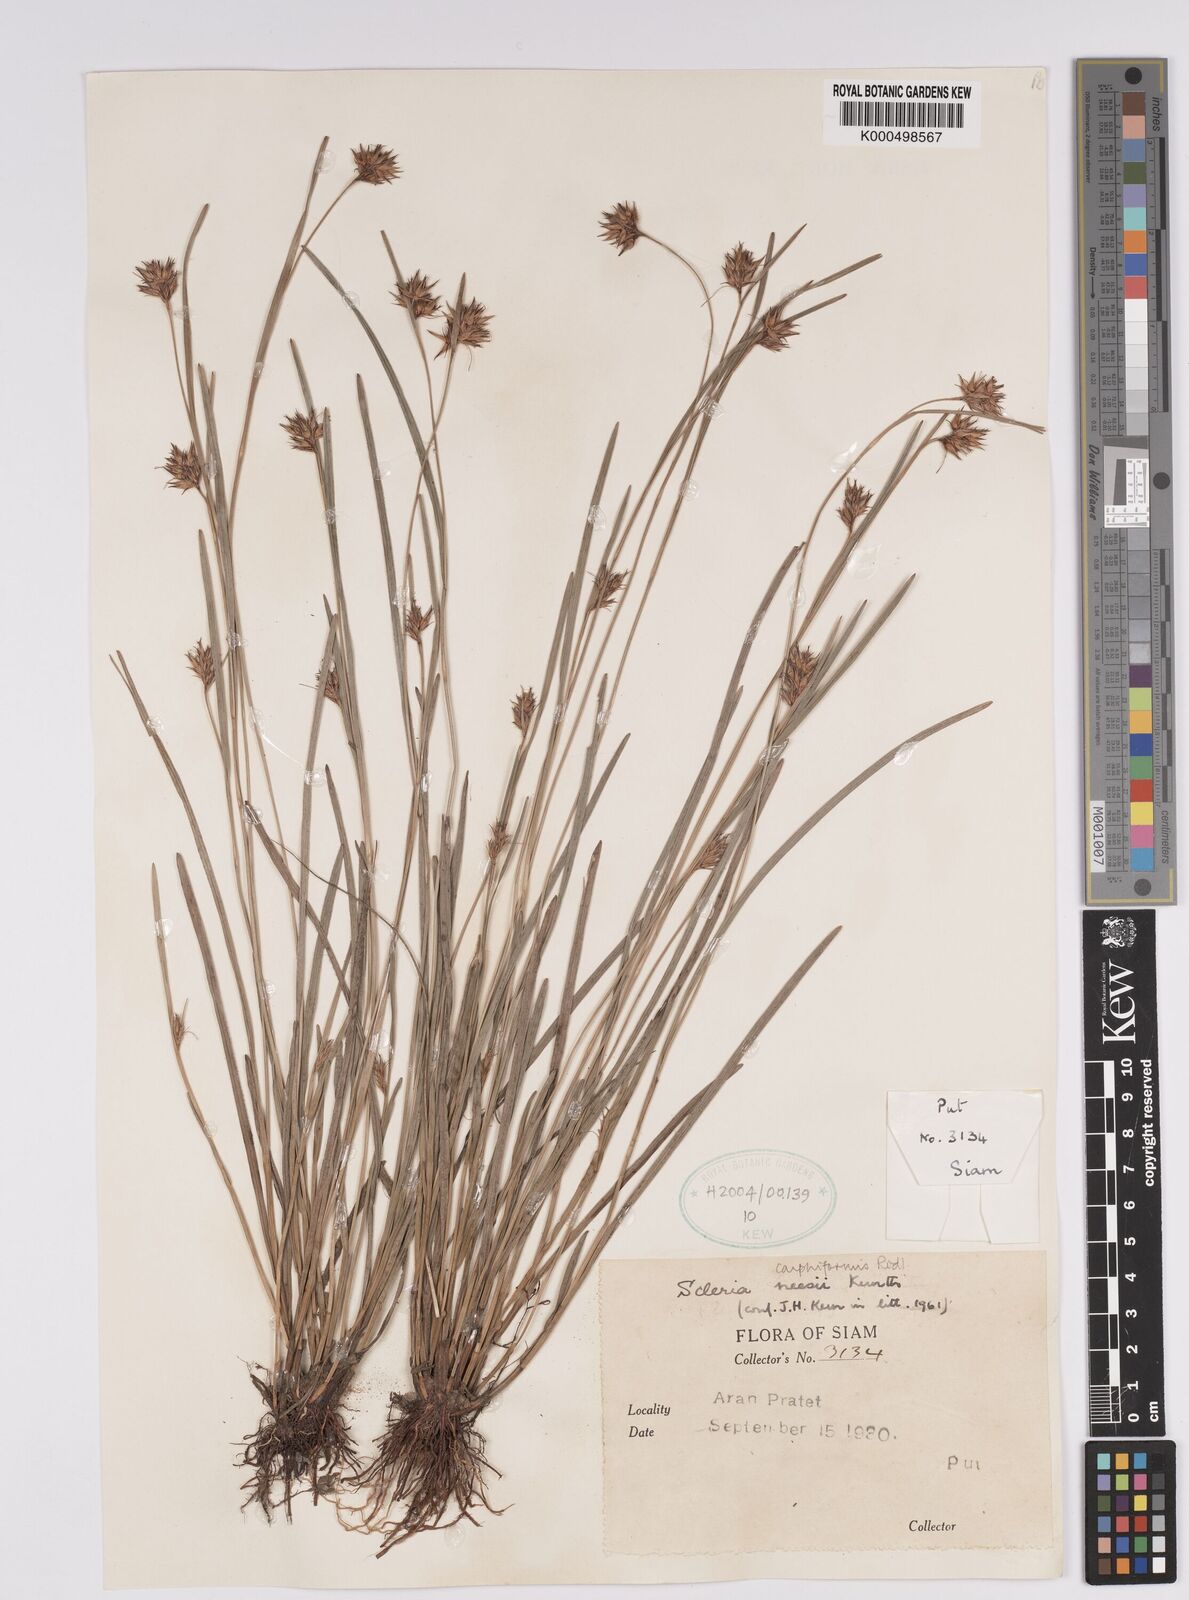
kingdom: Plantae
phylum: Tracheophyta
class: Liliopsida
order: Poales
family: Cyperaceae
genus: Scleria
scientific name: Scleria neesii
